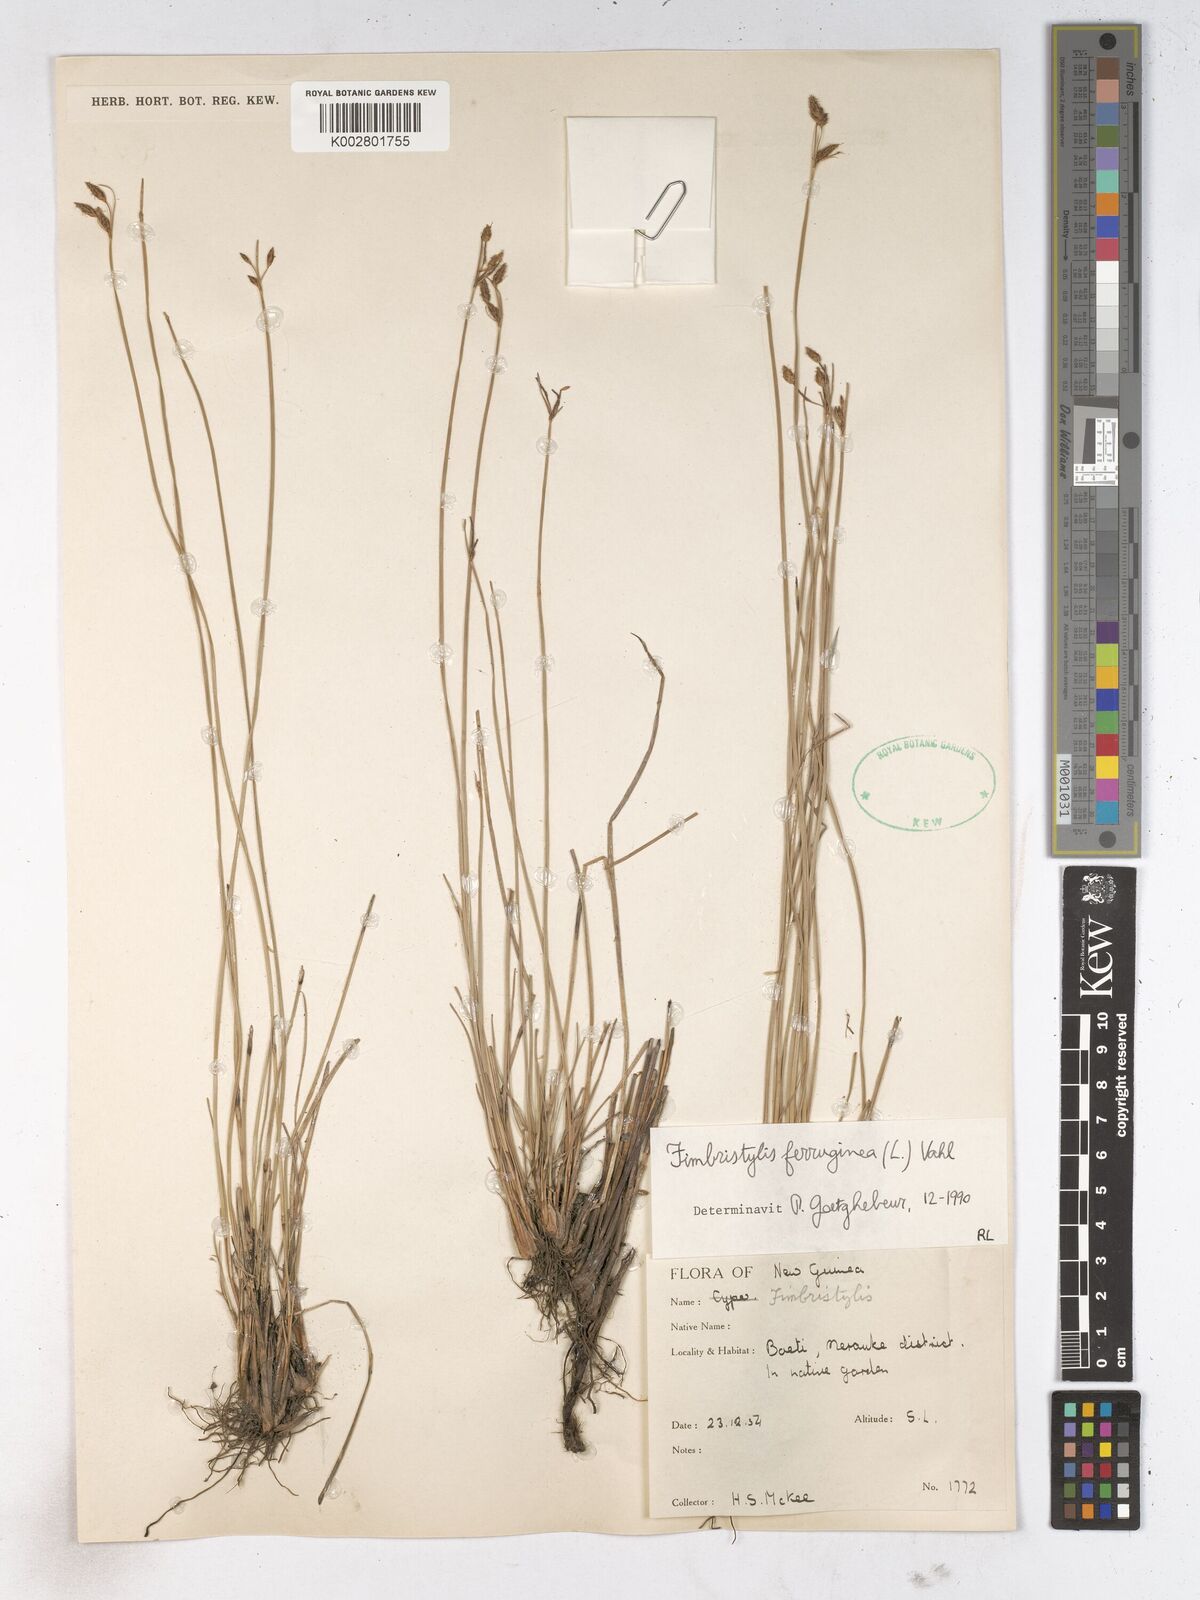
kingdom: Plantae
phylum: Tracheophyta
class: Liliopsida
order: Poales
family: Cyperaceae
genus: Fimbristylis
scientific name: Fimbristylis ferruginea
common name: West indian fimbry
